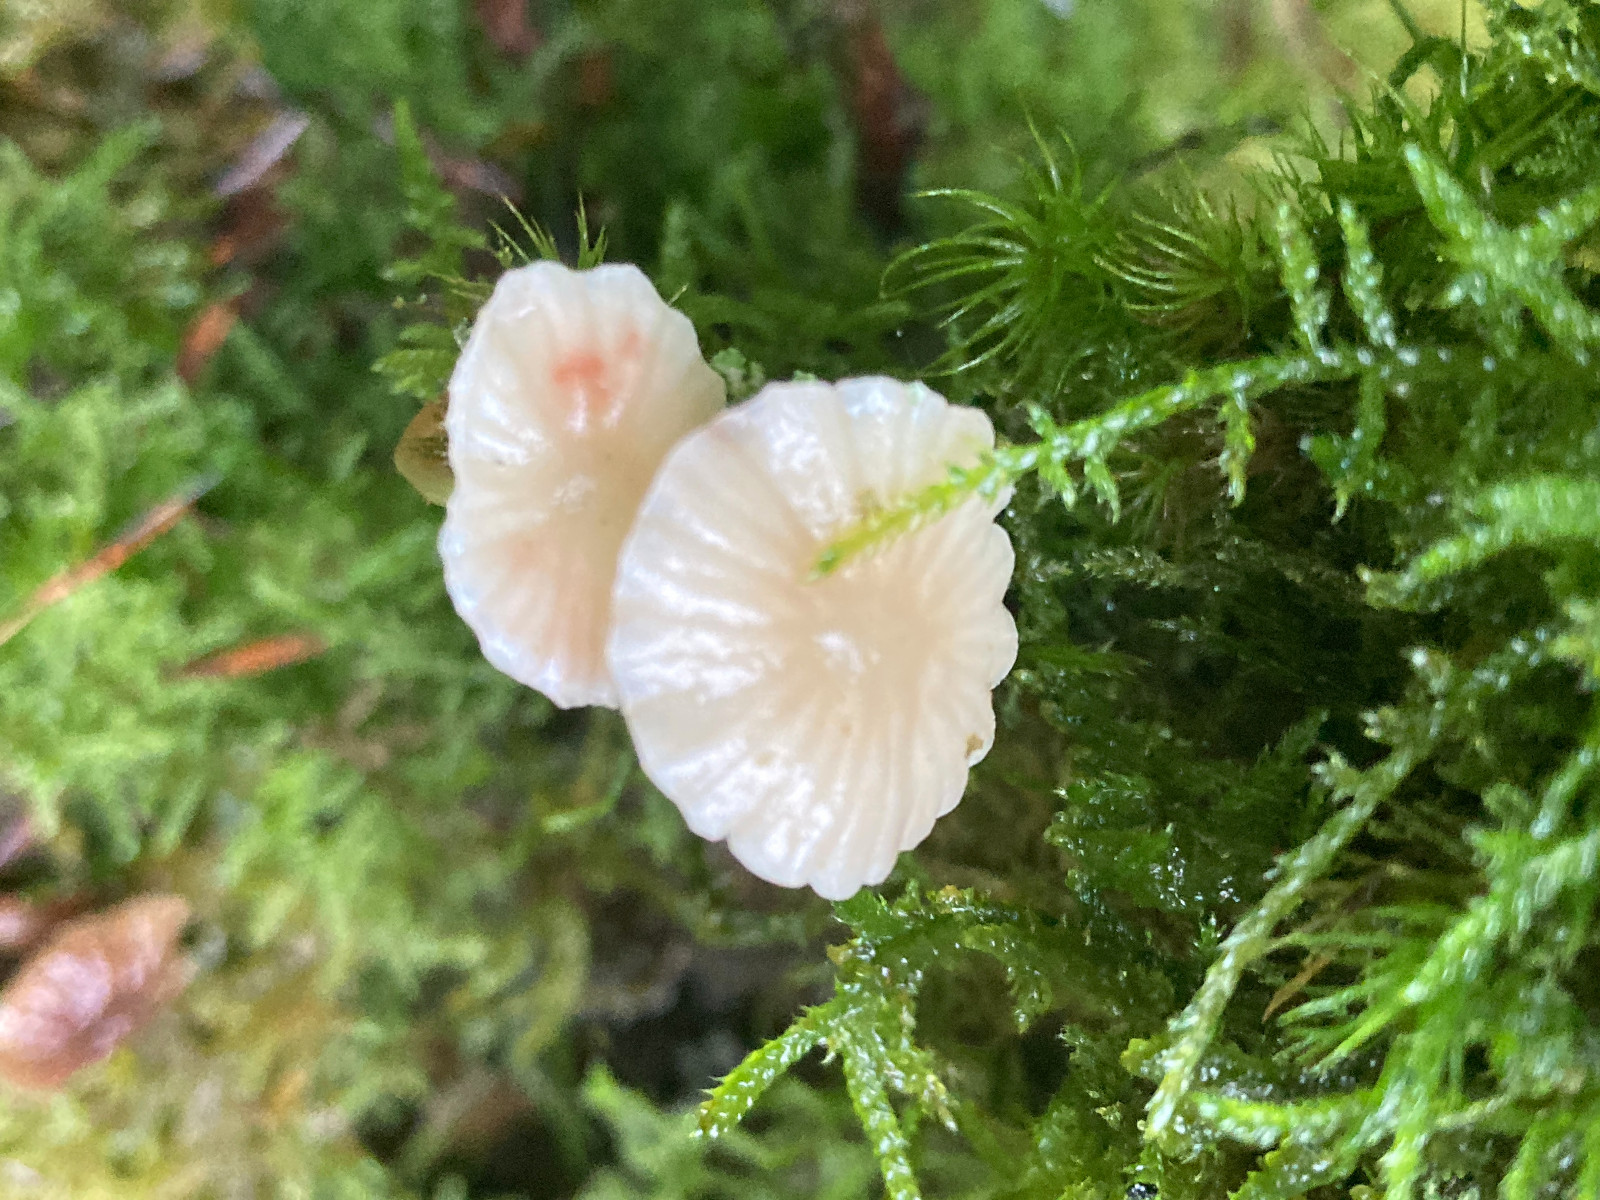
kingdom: Fungi
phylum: Basidiomycota
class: Agaricomycetes
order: Agaricales
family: Mycenaceae
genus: Mycena
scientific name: Mycena epipterygia
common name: gulstokket huesvamp
